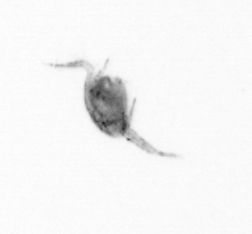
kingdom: Animalia
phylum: Arthropoda
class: Copepoda
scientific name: Copepoda
